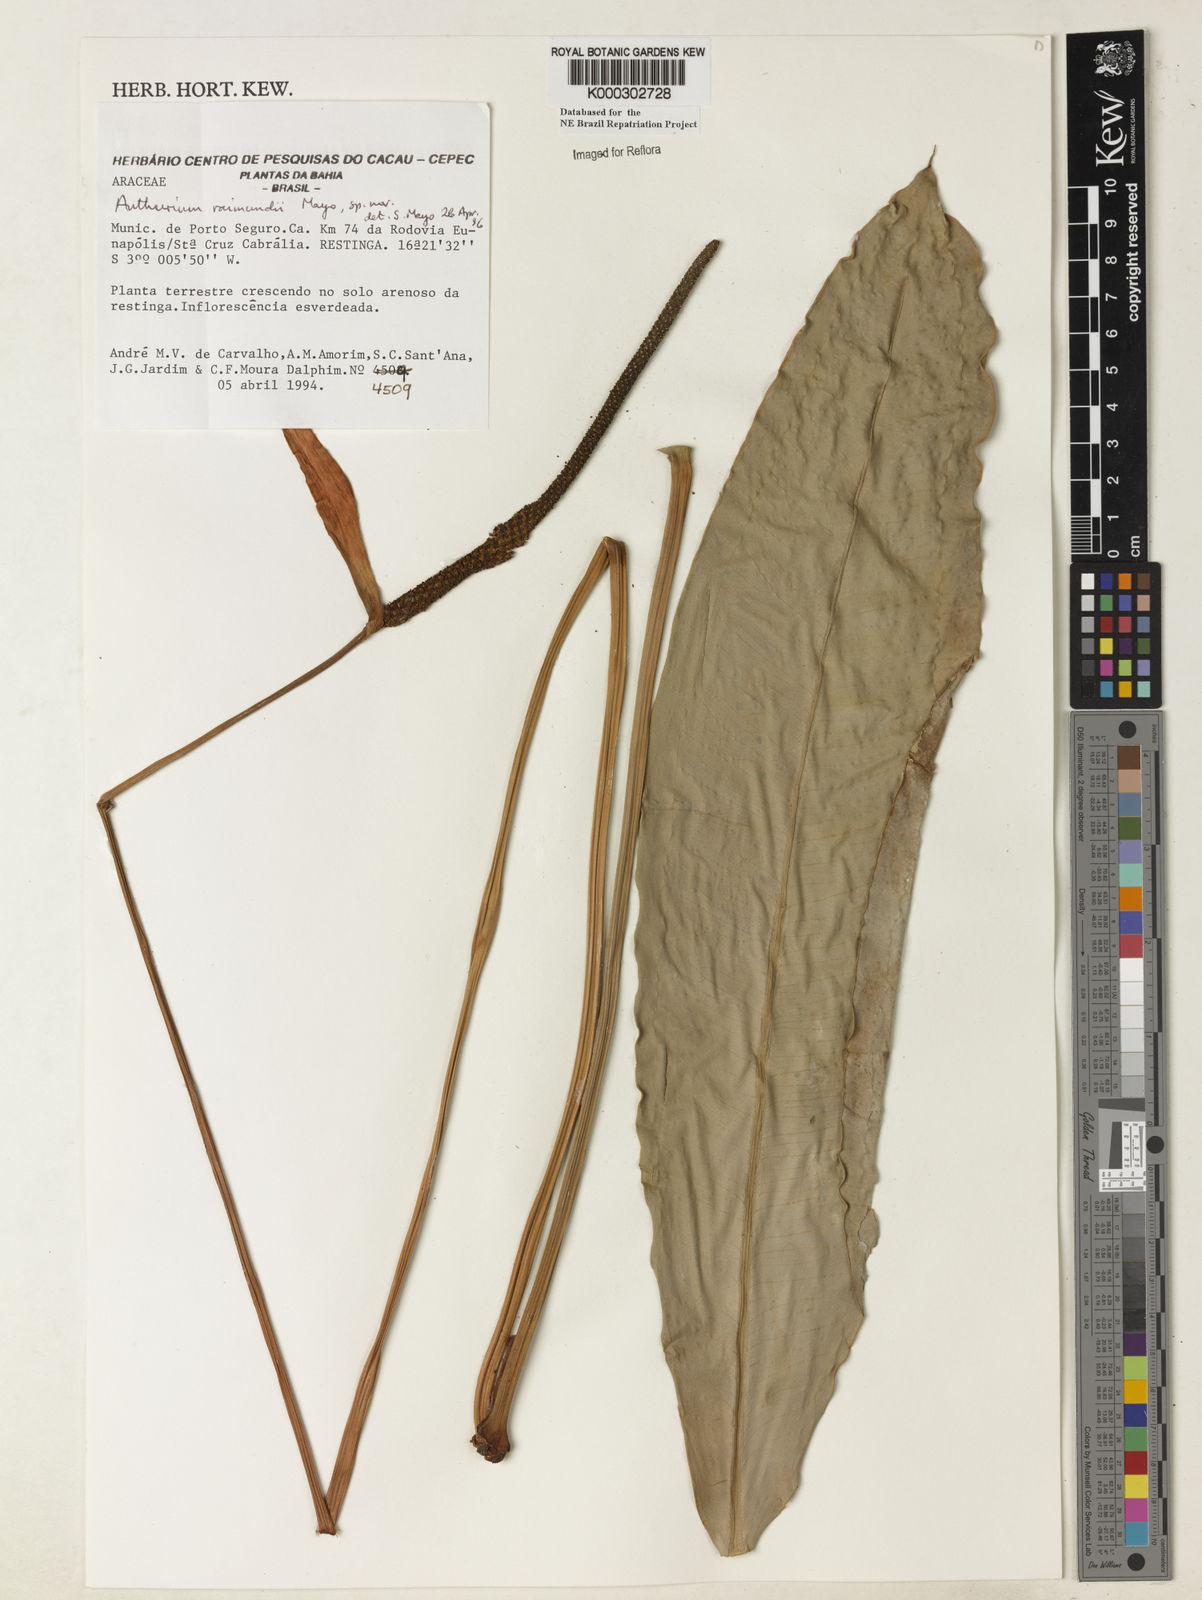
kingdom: Plantae
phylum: Tracheophyta
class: Liliopsida
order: Alismatales
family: Araceae
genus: Anthurium
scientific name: Anthurium raimundii
